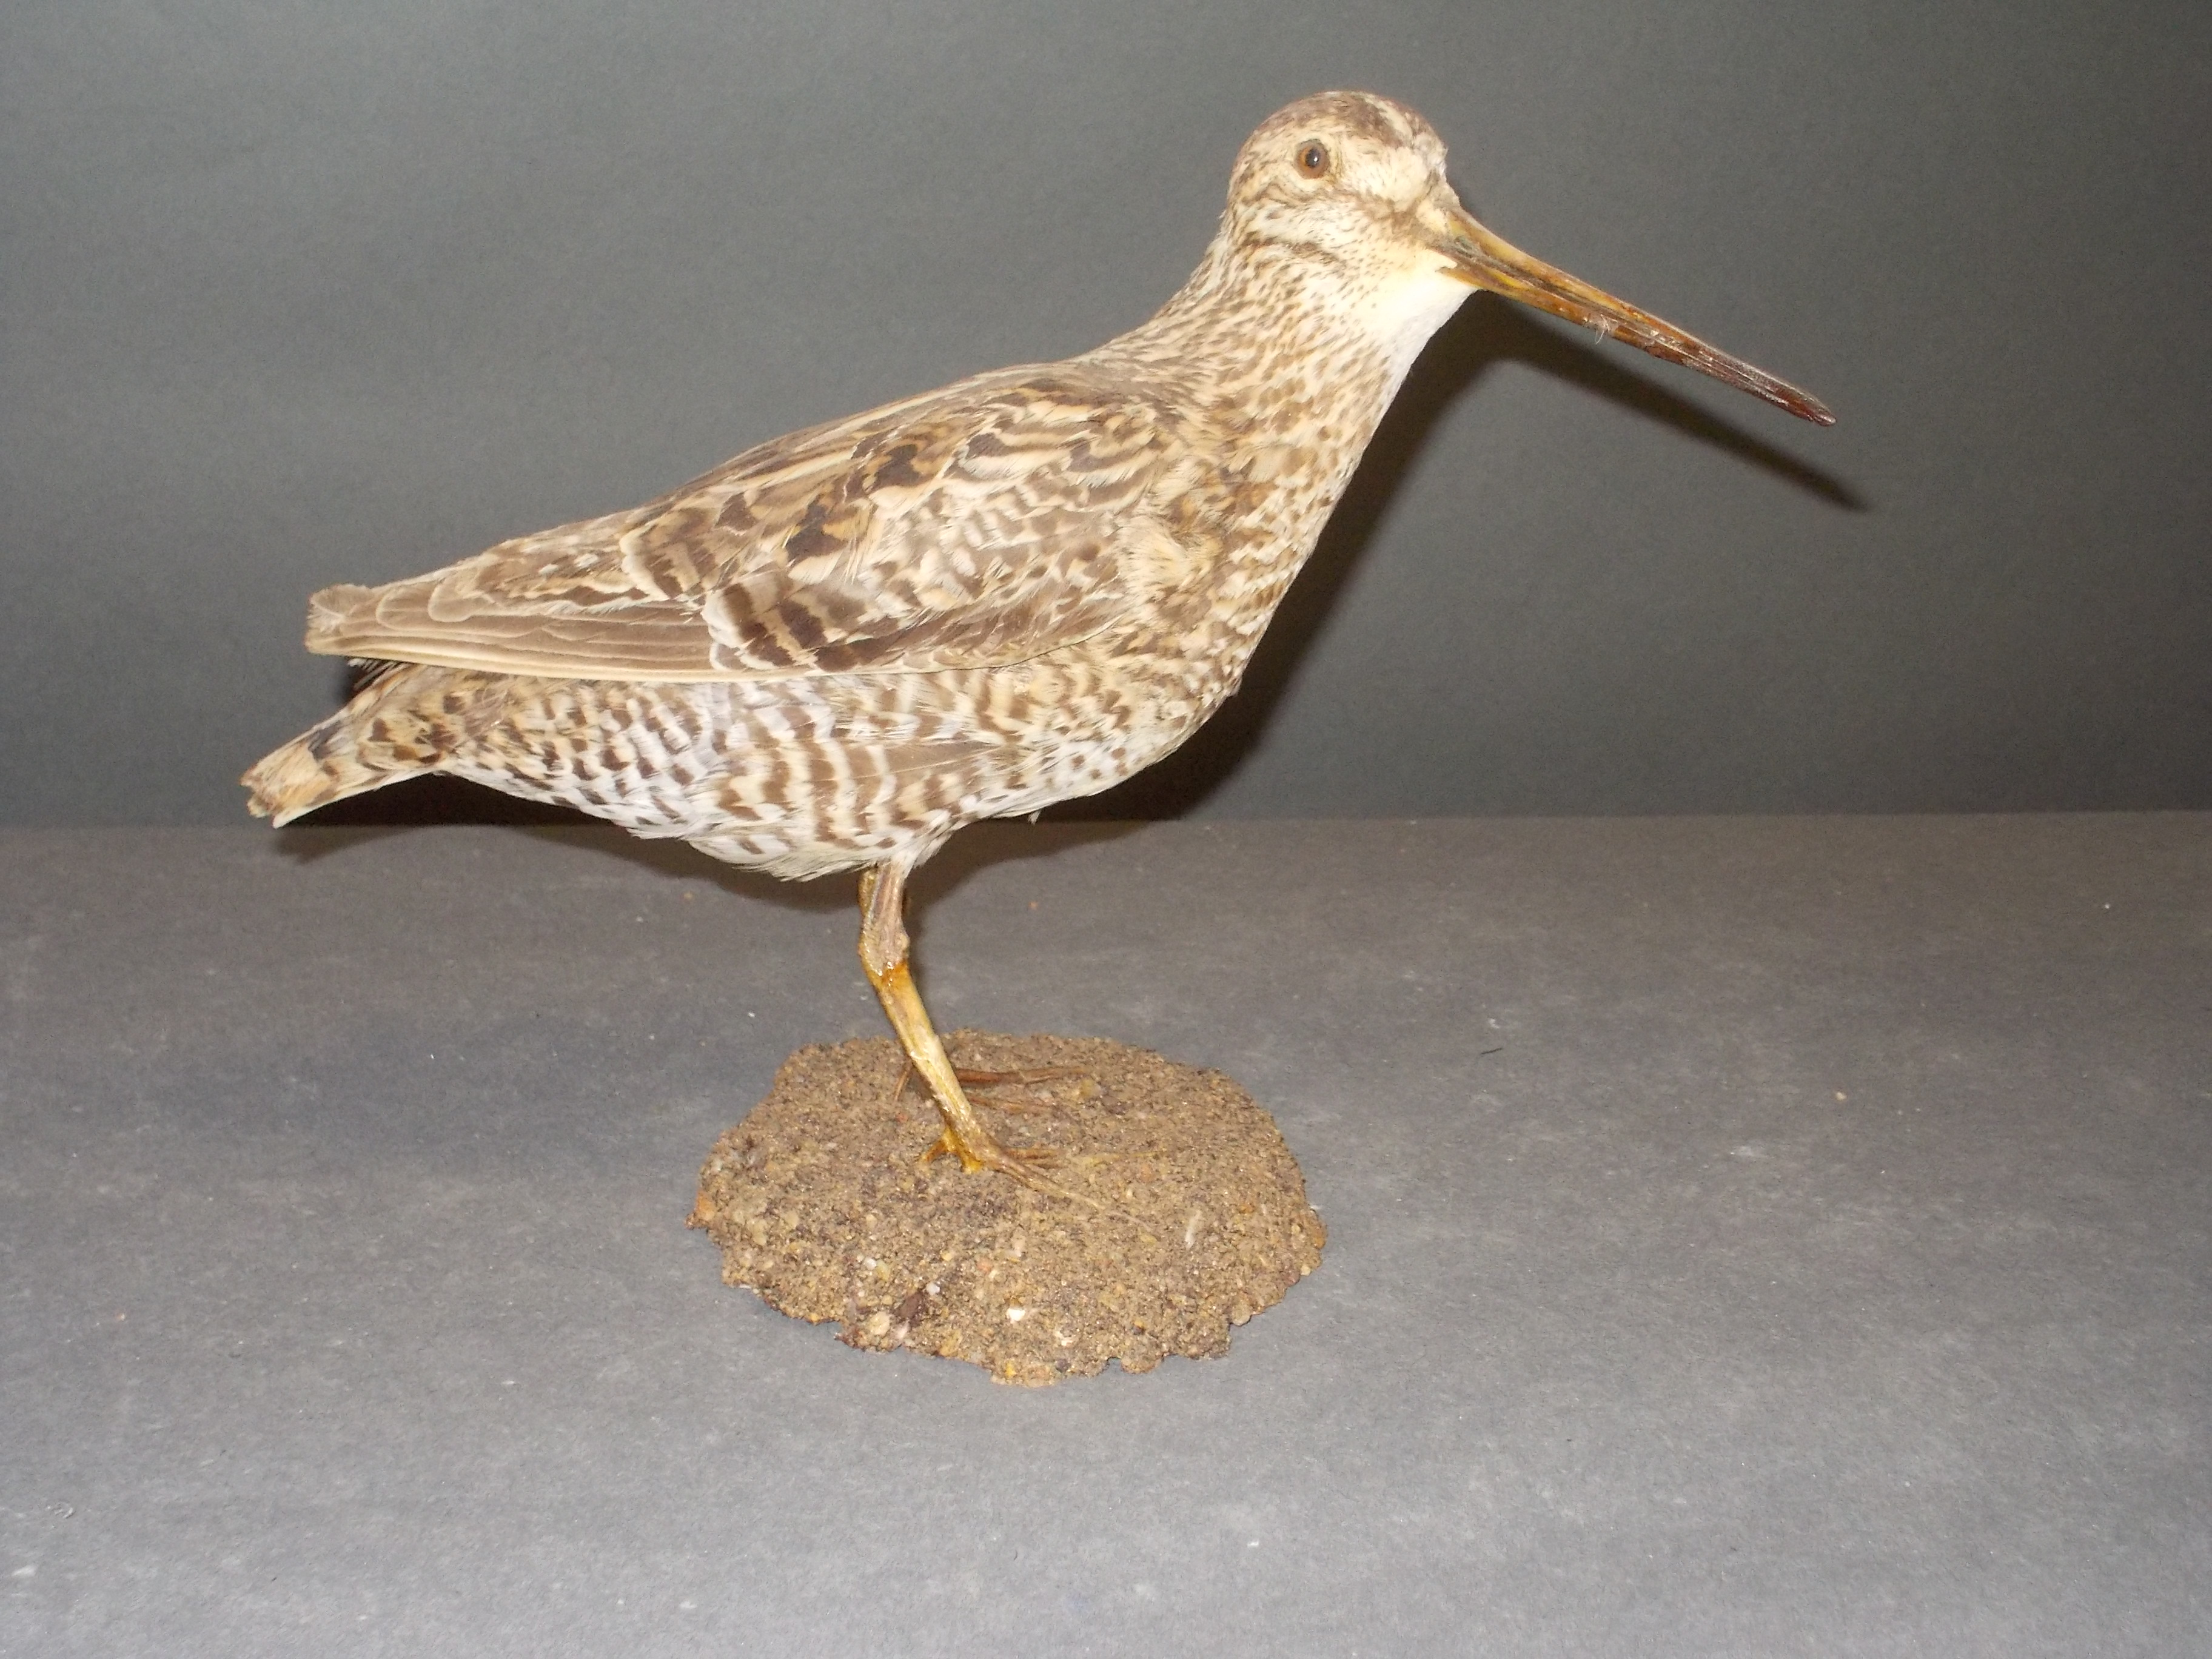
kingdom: Animalia
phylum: Chordata
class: Aves
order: Charadriiformes
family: Scolopacidae
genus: Gallinago
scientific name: Gallinago gallinago
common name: Common snipe
